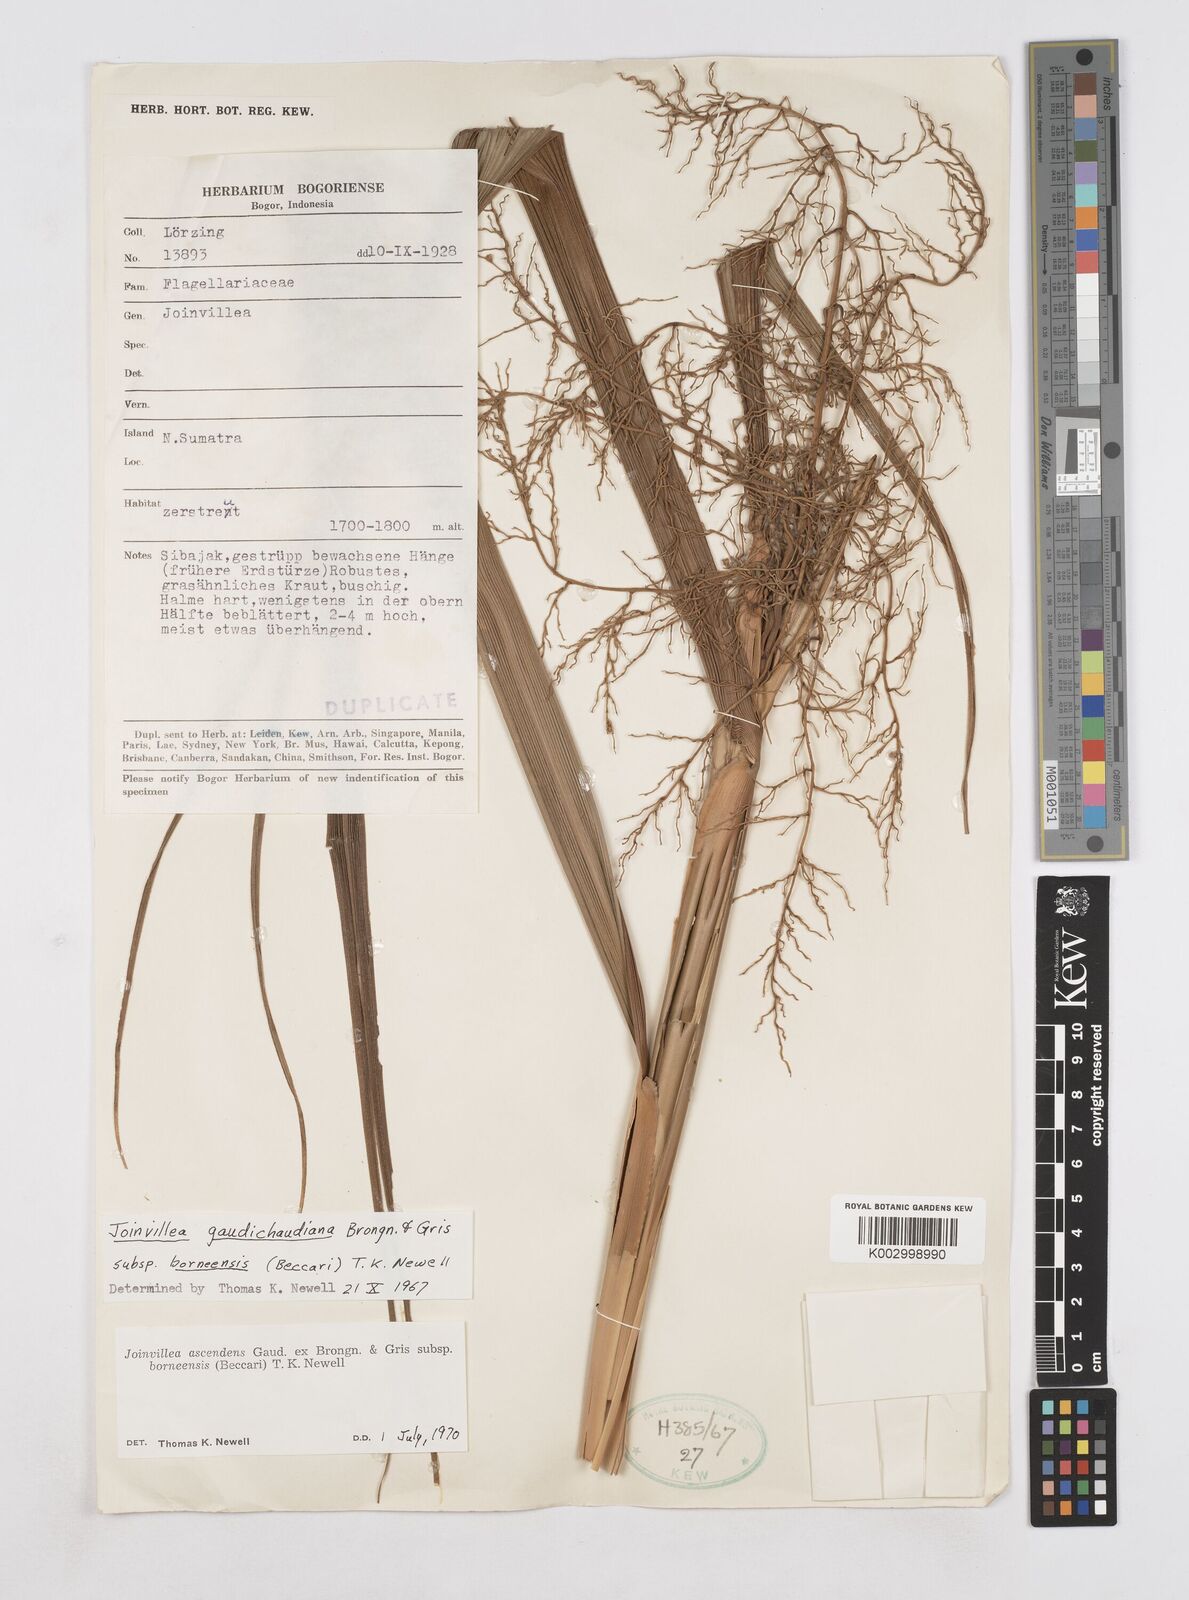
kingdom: Plantae
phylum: Tracheophyta
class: Liliopsida
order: Poales
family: Joinvilleaceae
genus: Joinvillea
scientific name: Joinvillea borneensis
